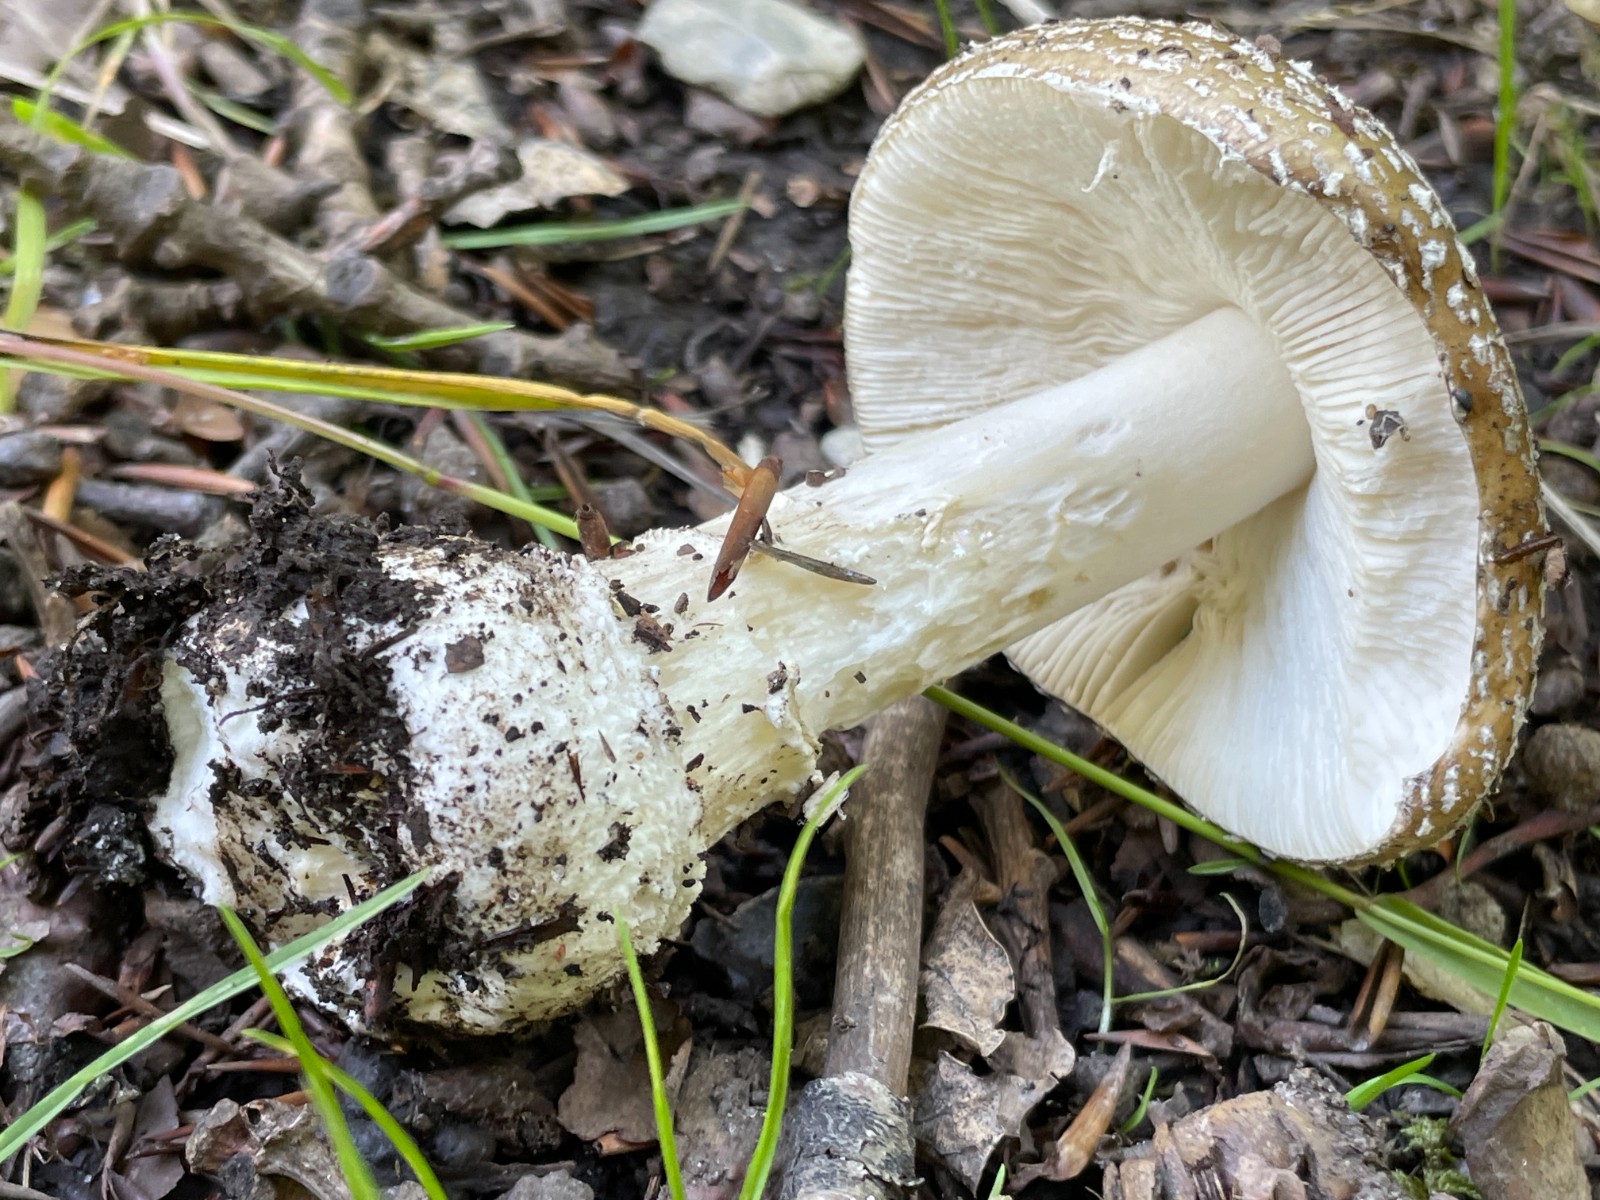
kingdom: Fungi
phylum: Basidiomycota
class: Agaricomycetes
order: Agaricales
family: Amanitaceae
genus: Amanita
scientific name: Amanita pantherina
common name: panter-fluesvamp
